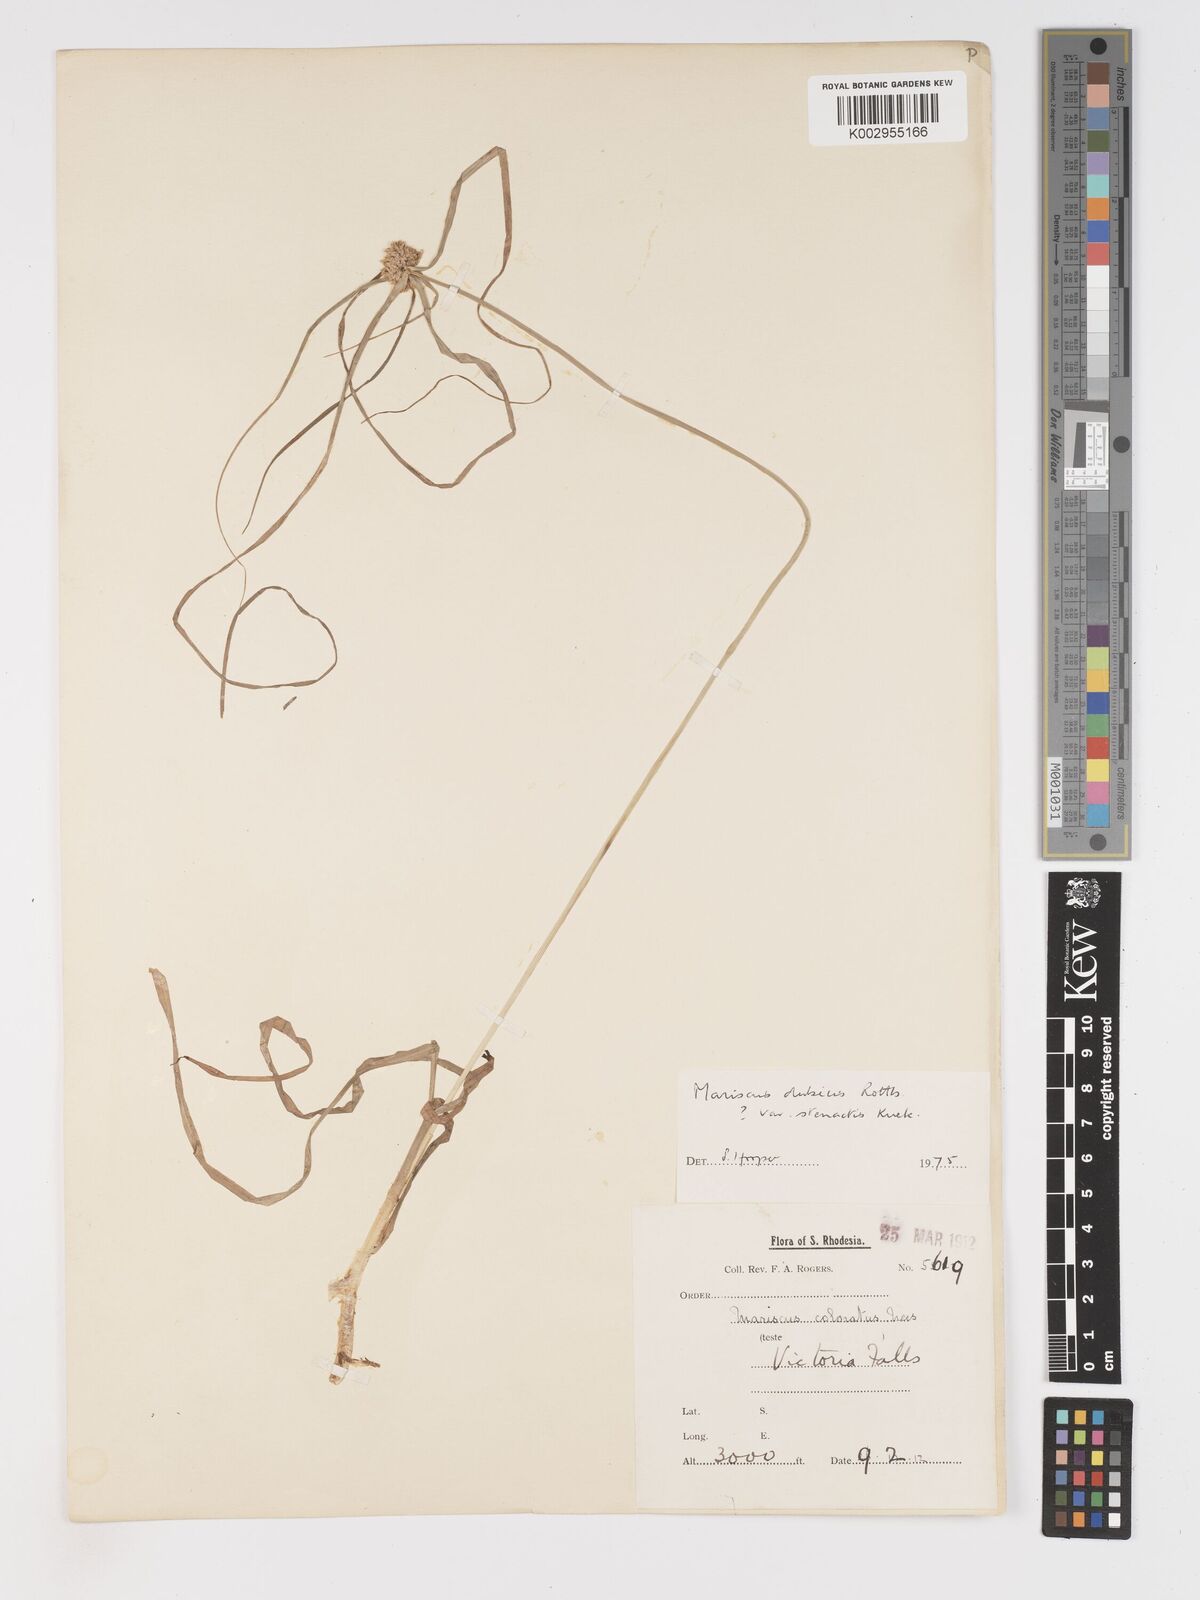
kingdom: Plantae
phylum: Tracheophyta
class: Liliopsida
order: Poales
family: Cyperaceae
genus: Cyperus
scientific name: Cyperus dubius
